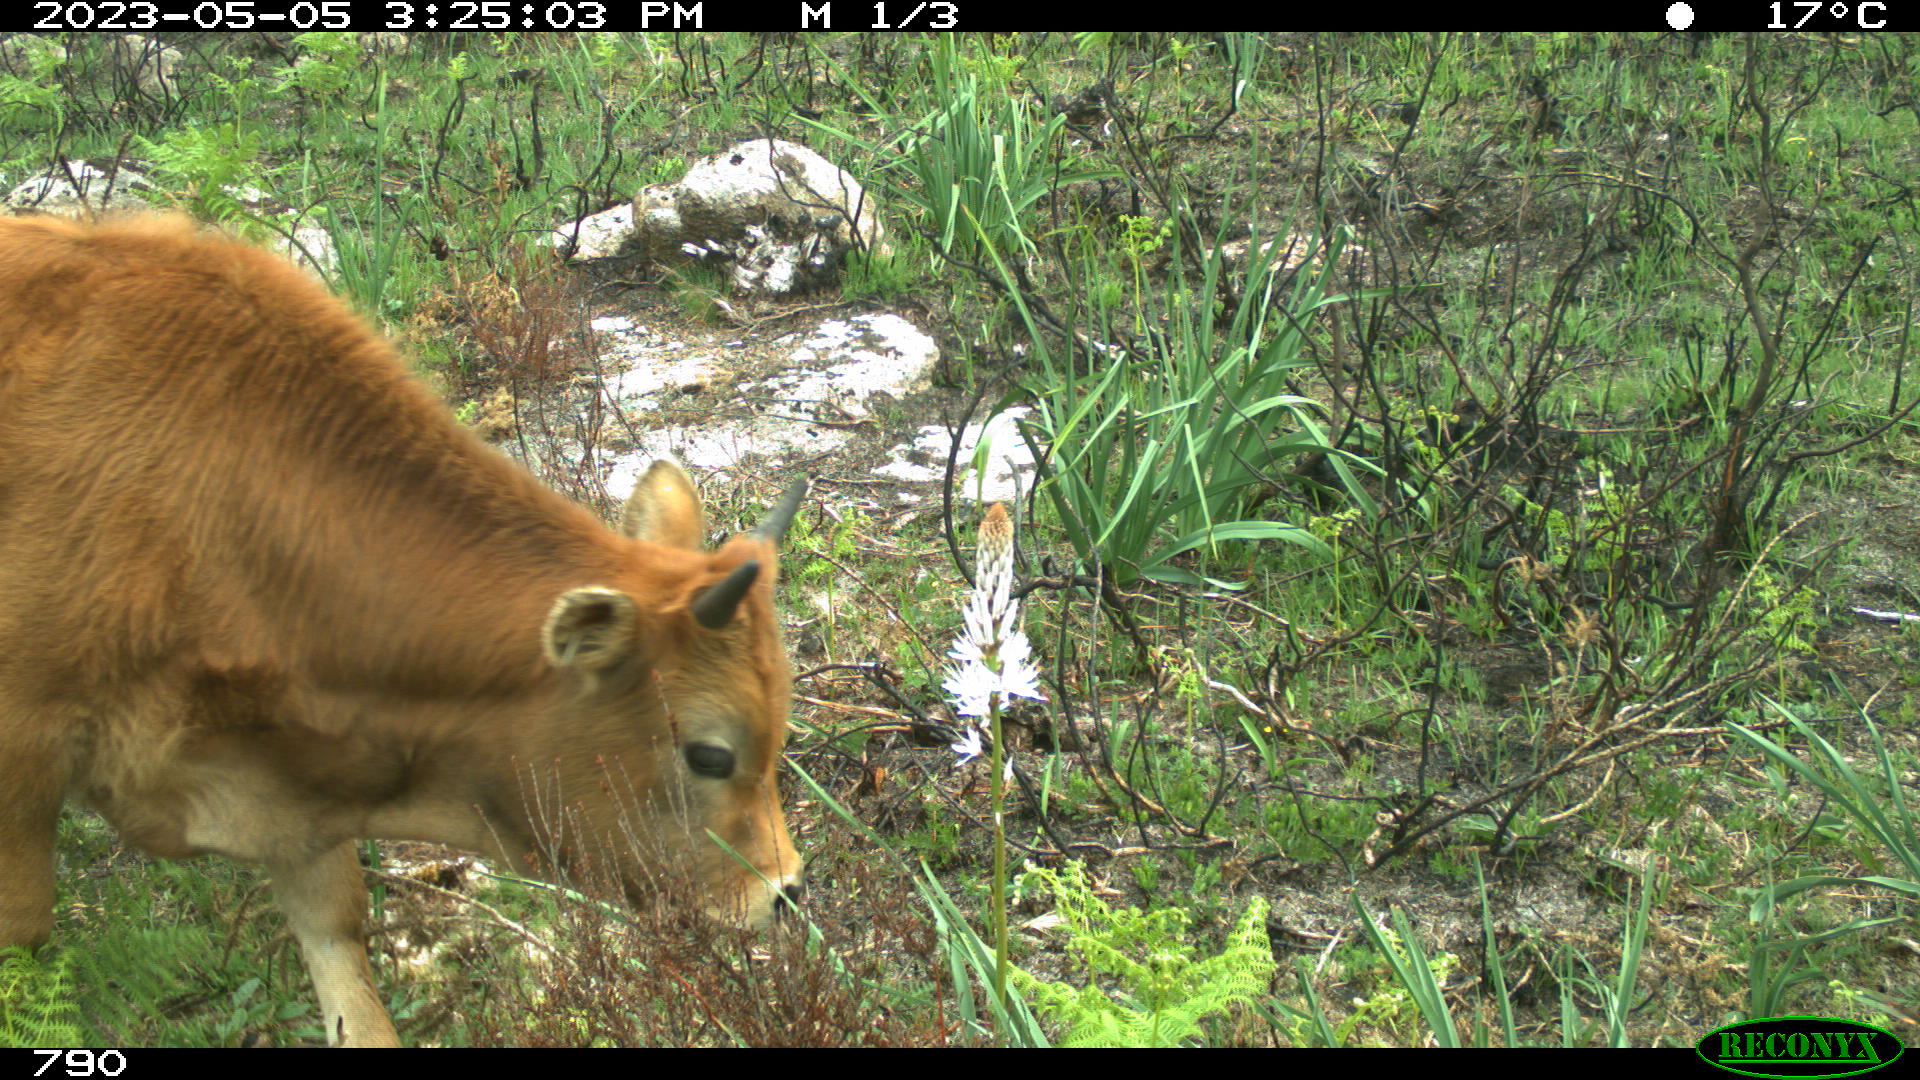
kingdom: Animalia
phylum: Chordata
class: Mammalia
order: Artiodactyla
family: Bovidae
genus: Bos
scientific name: Bos taurus
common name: Domesticated cattle
